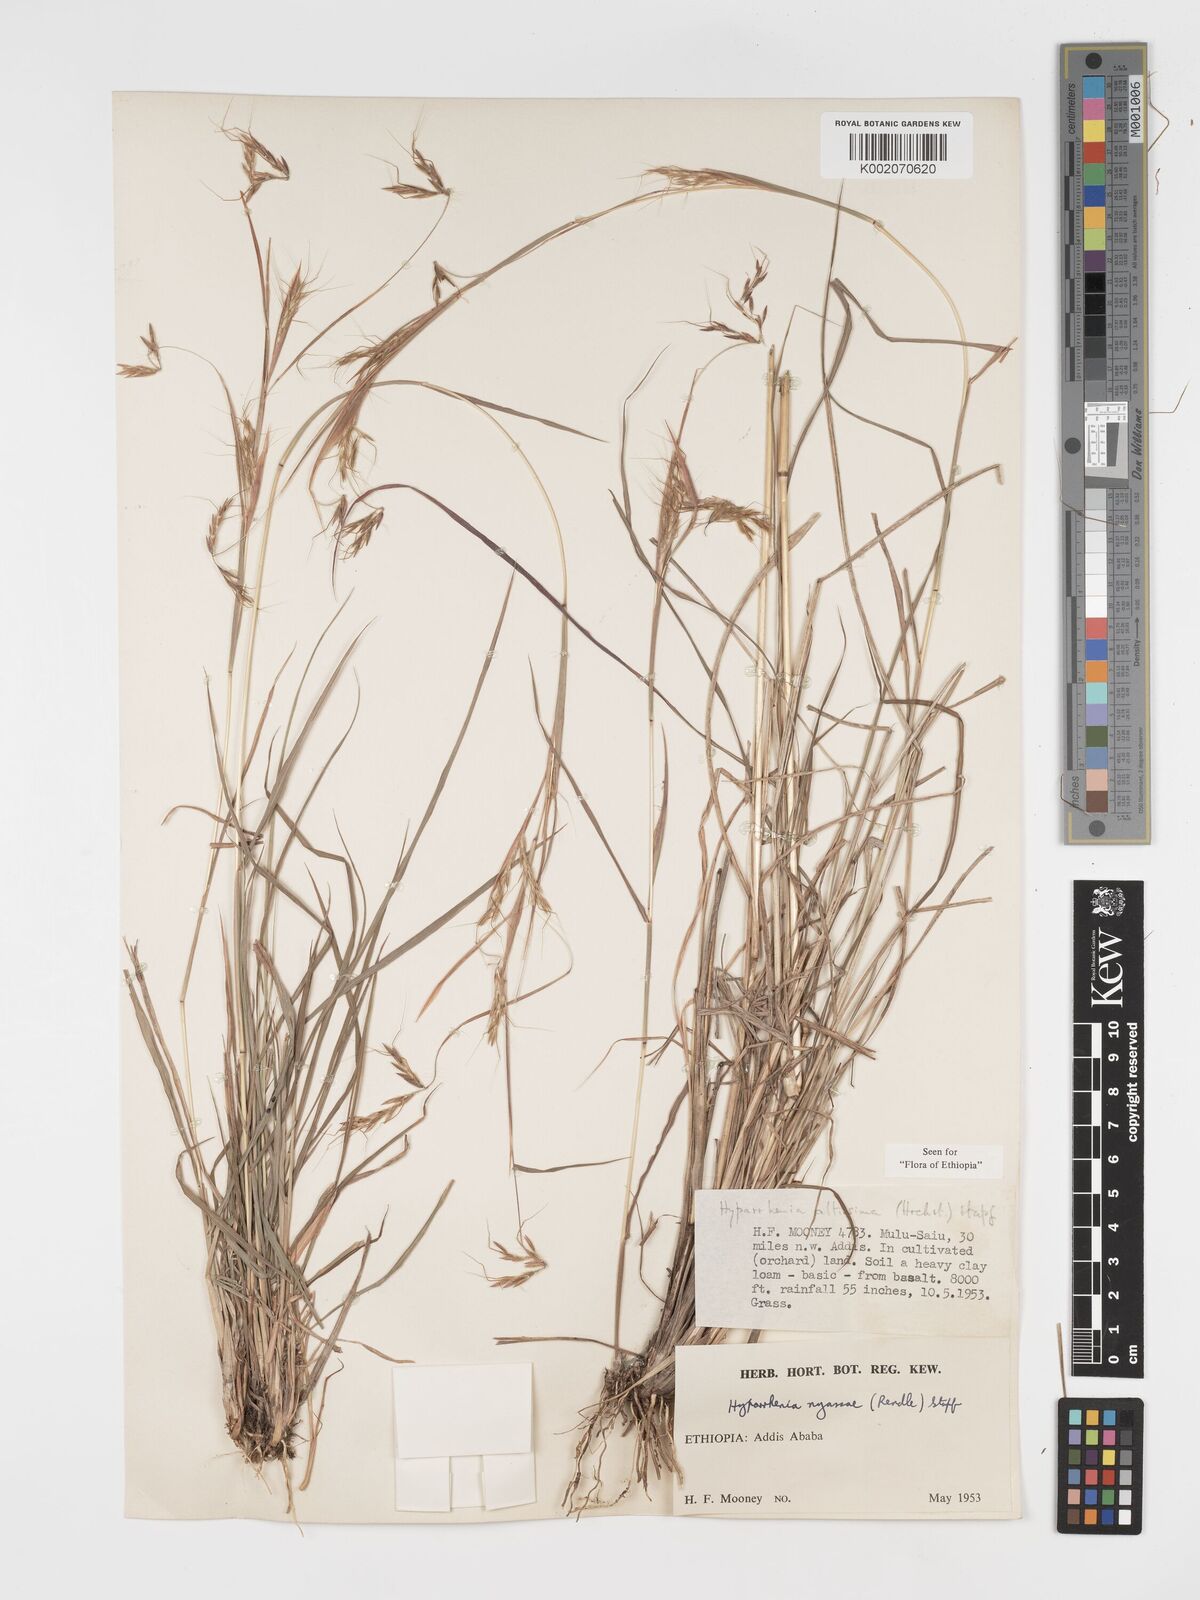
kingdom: Plantae
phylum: Tracheophyta
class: Liliopsida
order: Poales
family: Poaceae
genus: Hyparrhenia
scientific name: Hyparrhenia nyassae
